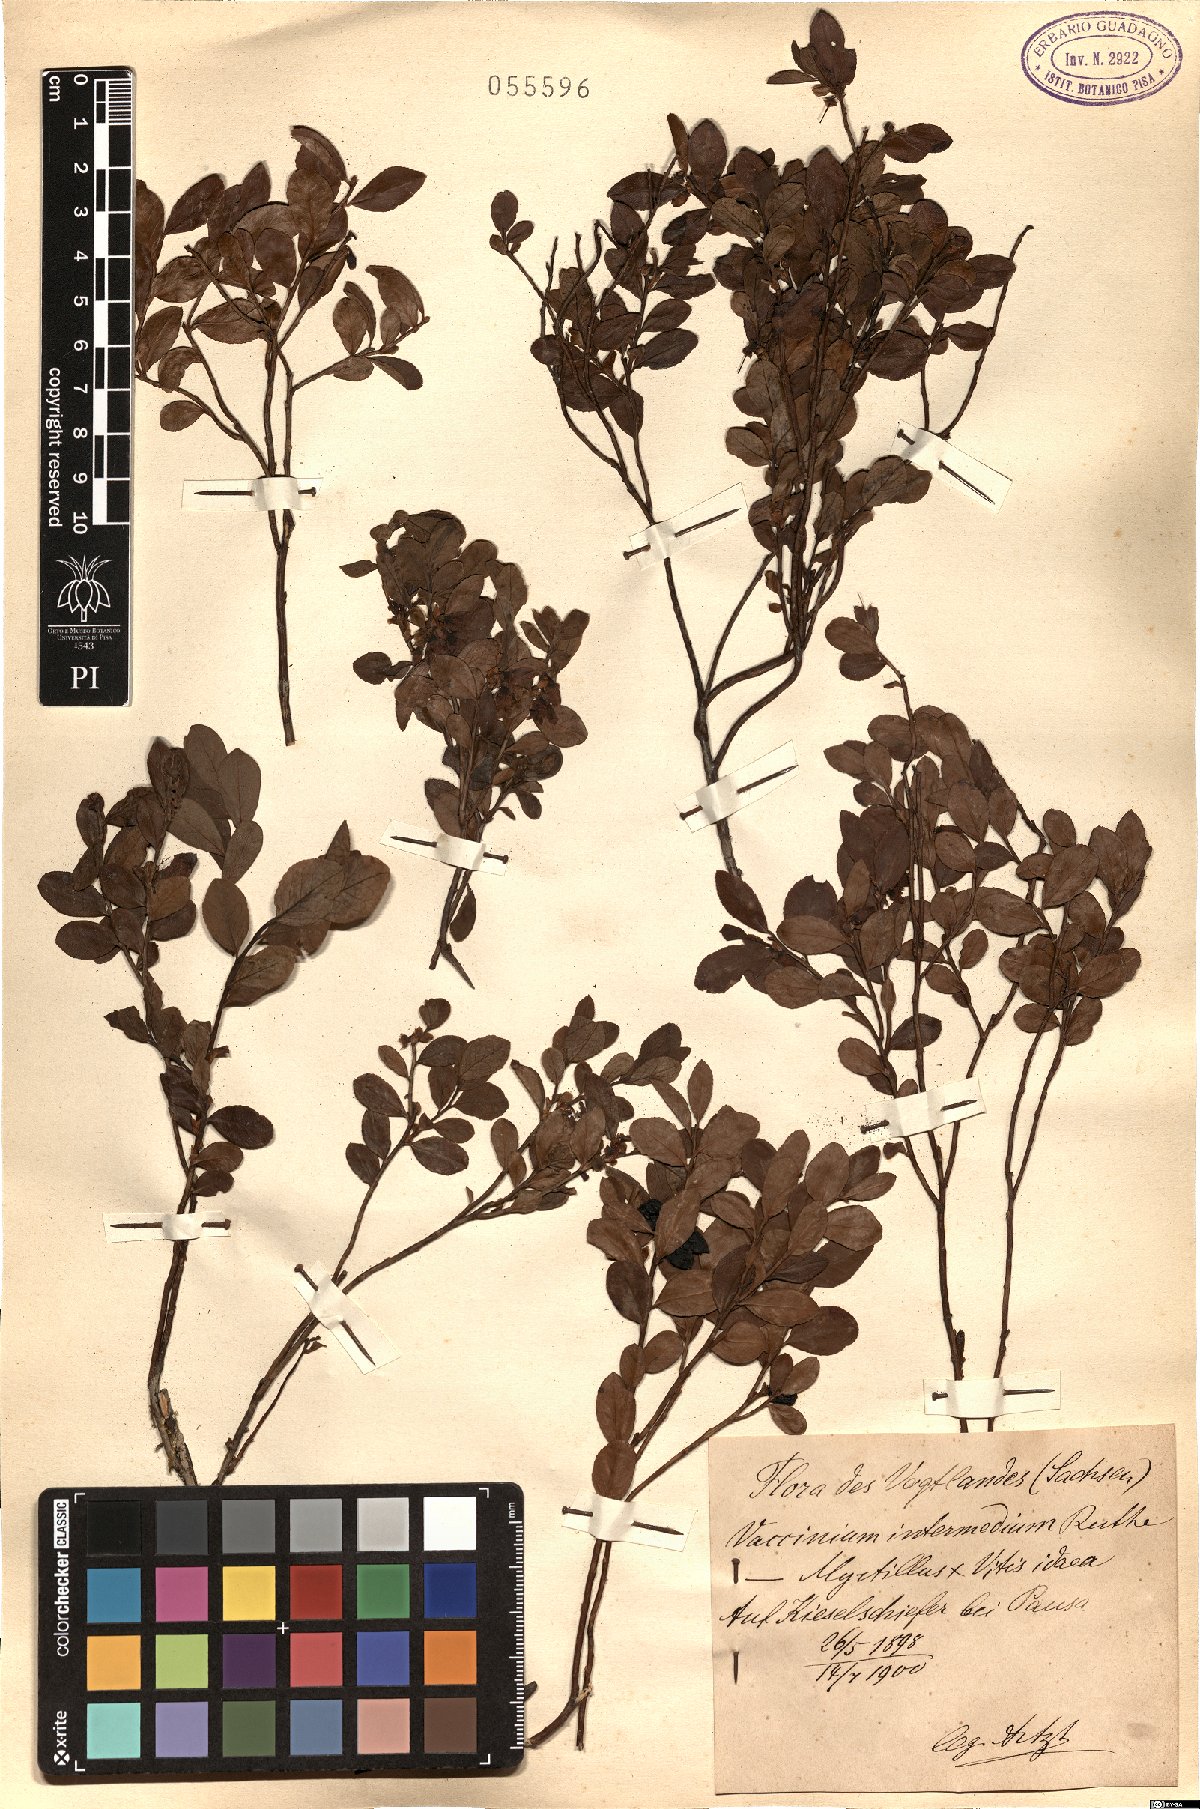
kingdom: Plantae
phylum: Tracheophyta
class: Magnoliopsida
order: Ericales
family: Ericaceae
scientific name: Ericaceae
